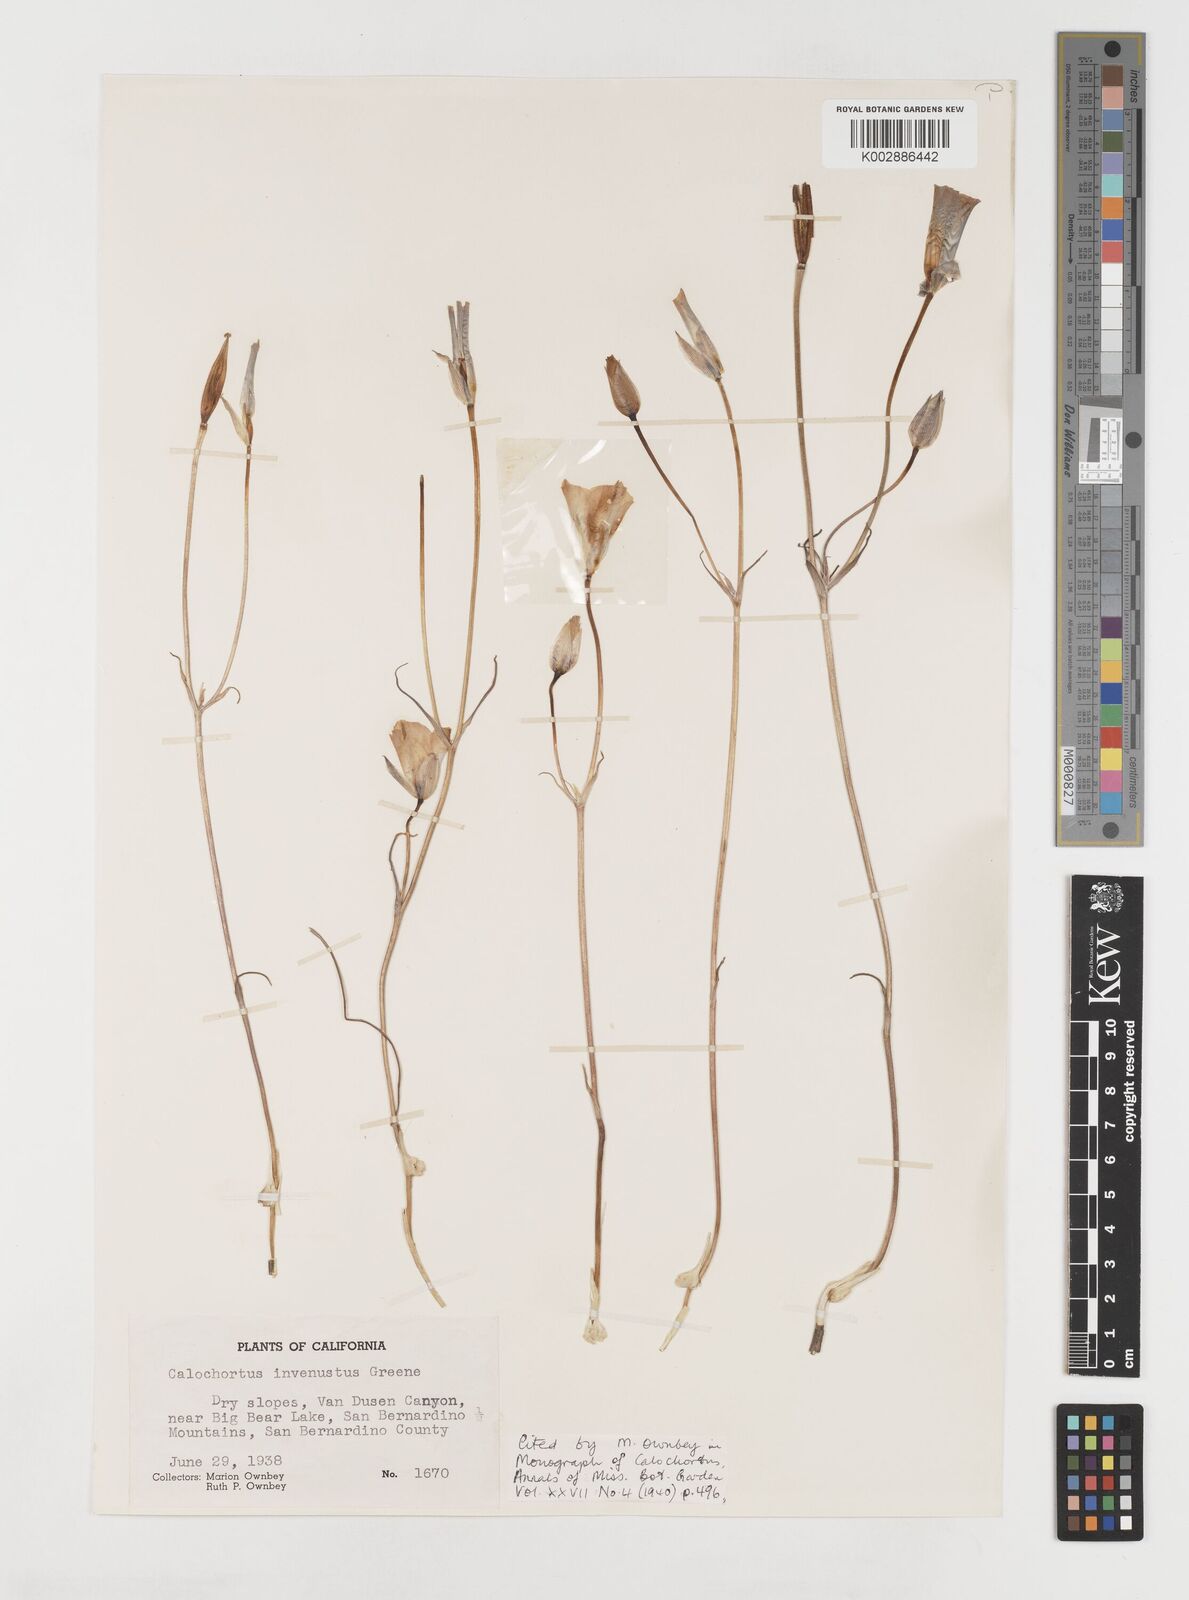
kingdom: Plantae
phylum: Tracheophyta
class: Liliopsida
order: Liliales
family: Liliaceae
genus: Calochortus
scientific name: Calochortus invenustus
